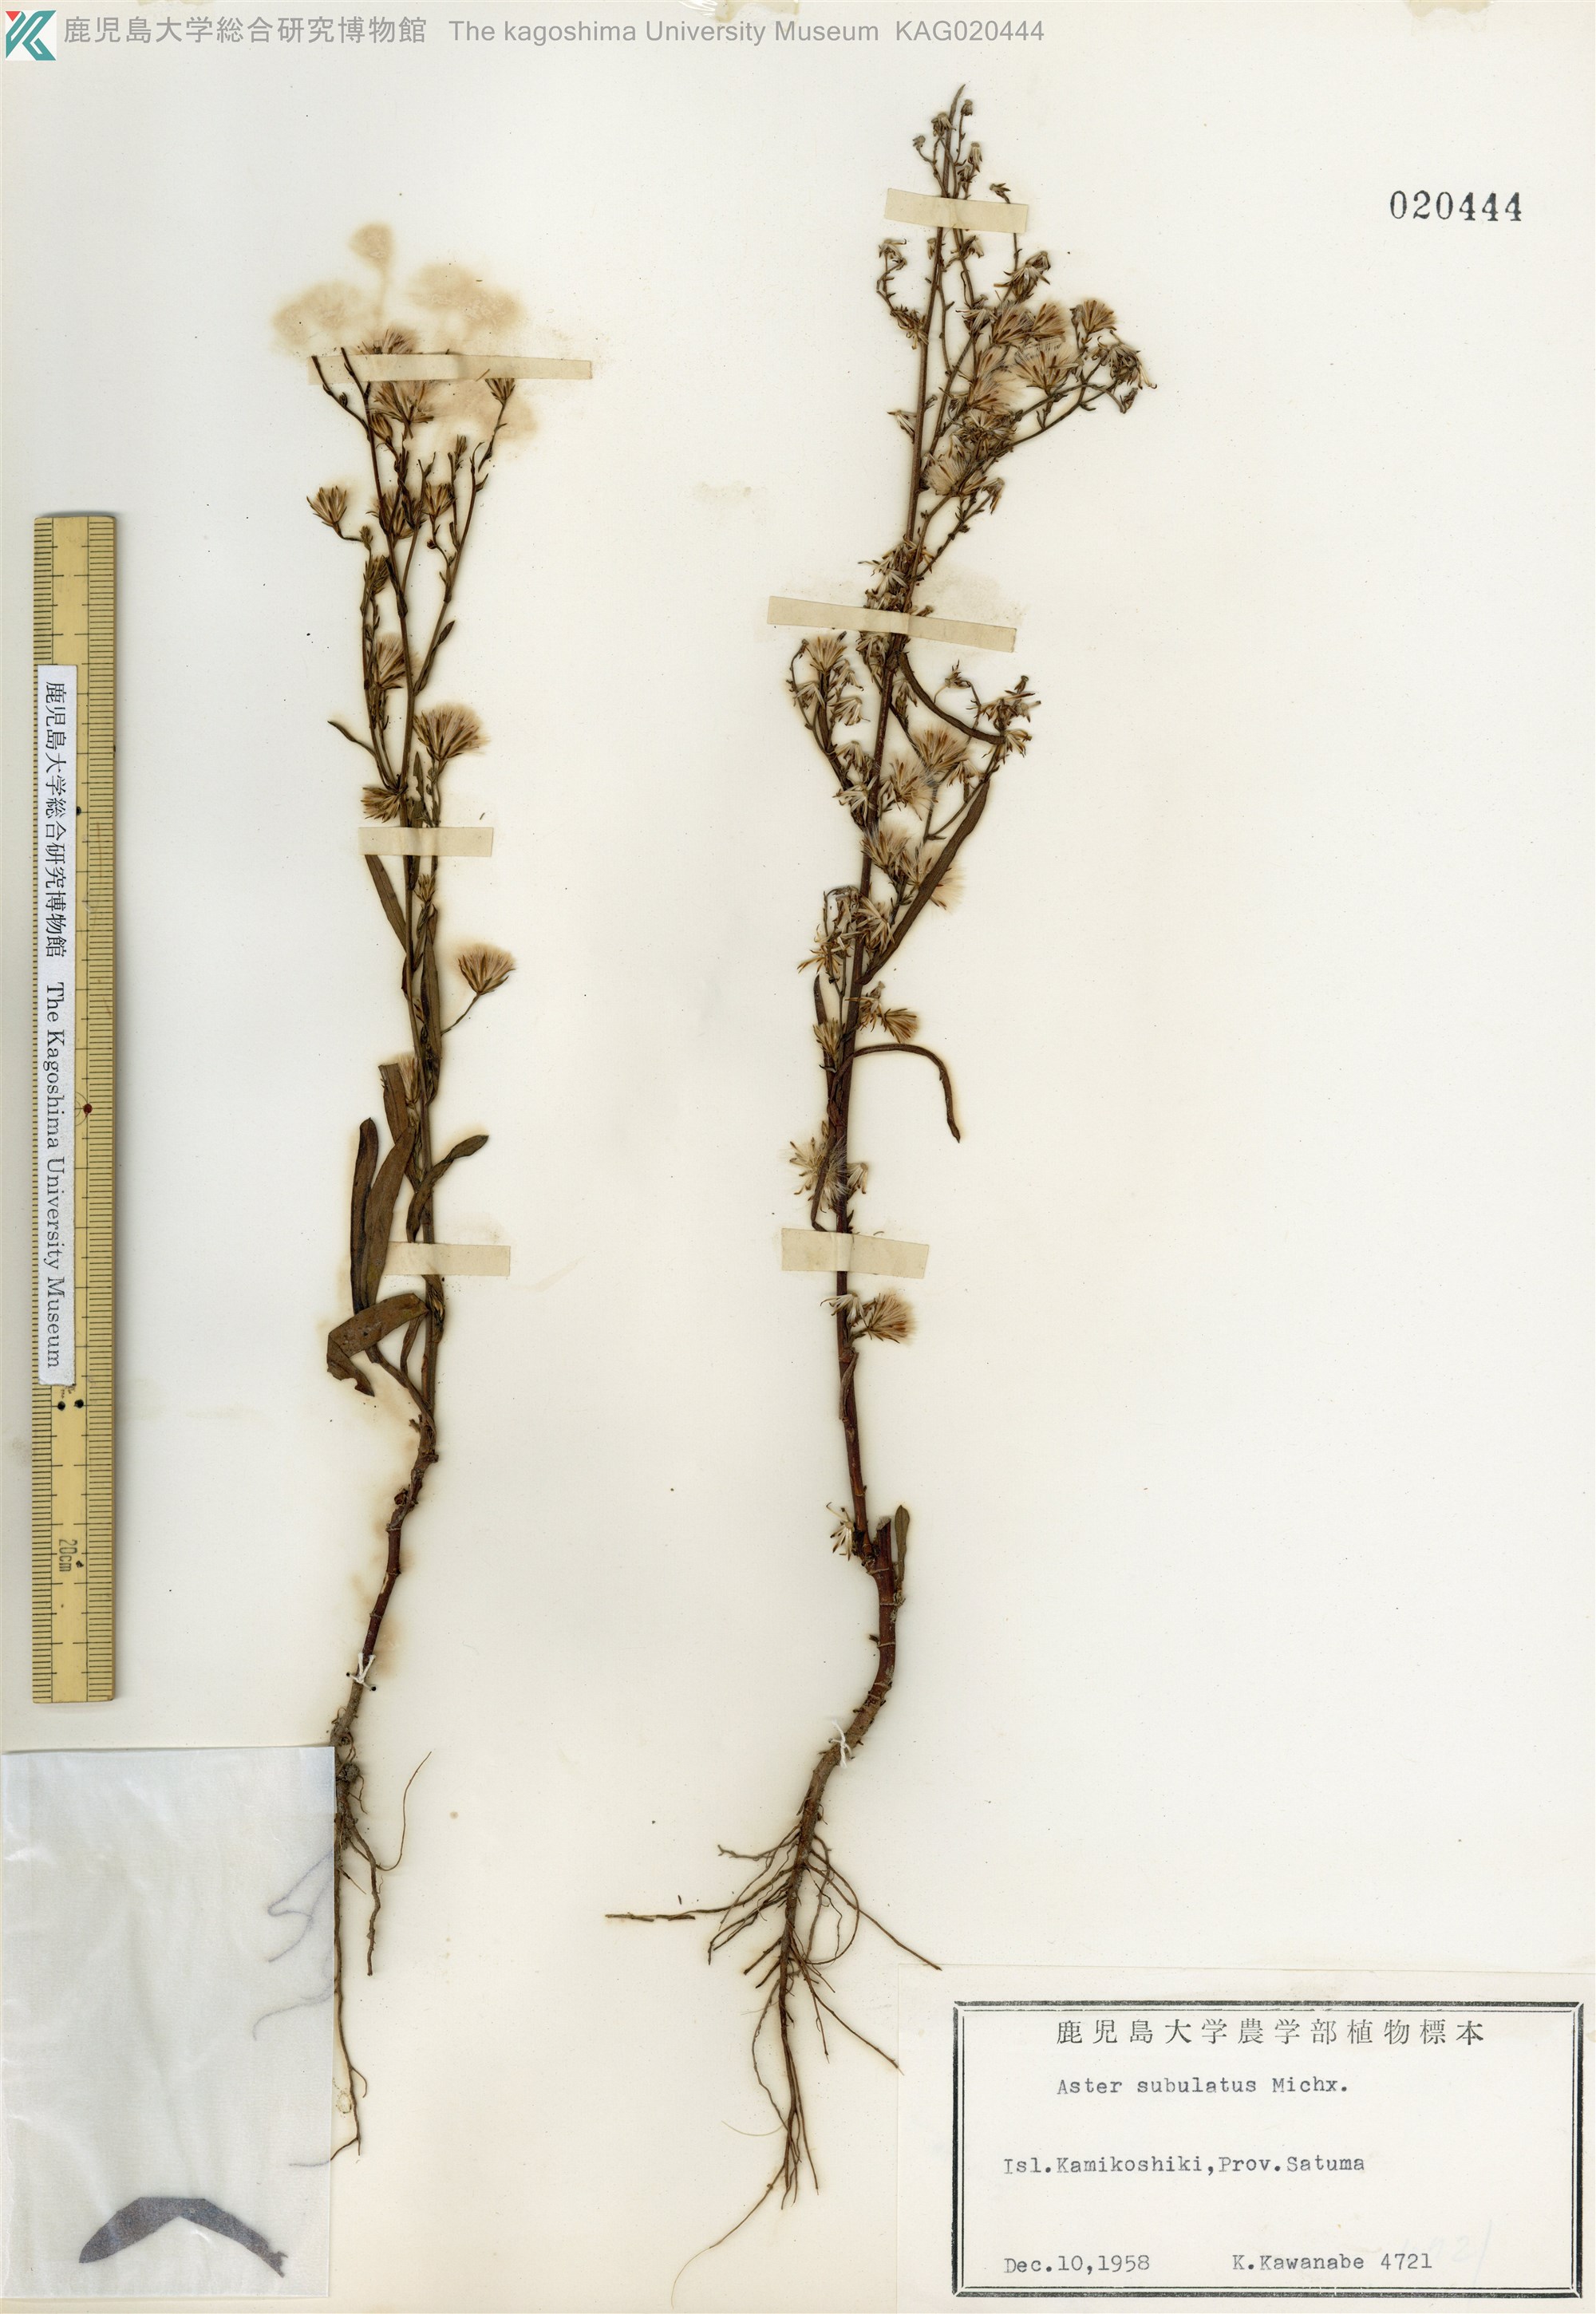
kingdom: Plantae
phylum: Tracheophyta
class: Magnoliopsida
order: Asterales
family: Asteraceae
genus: Symphyotrichum
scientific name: Symphyotrichum subulatum
